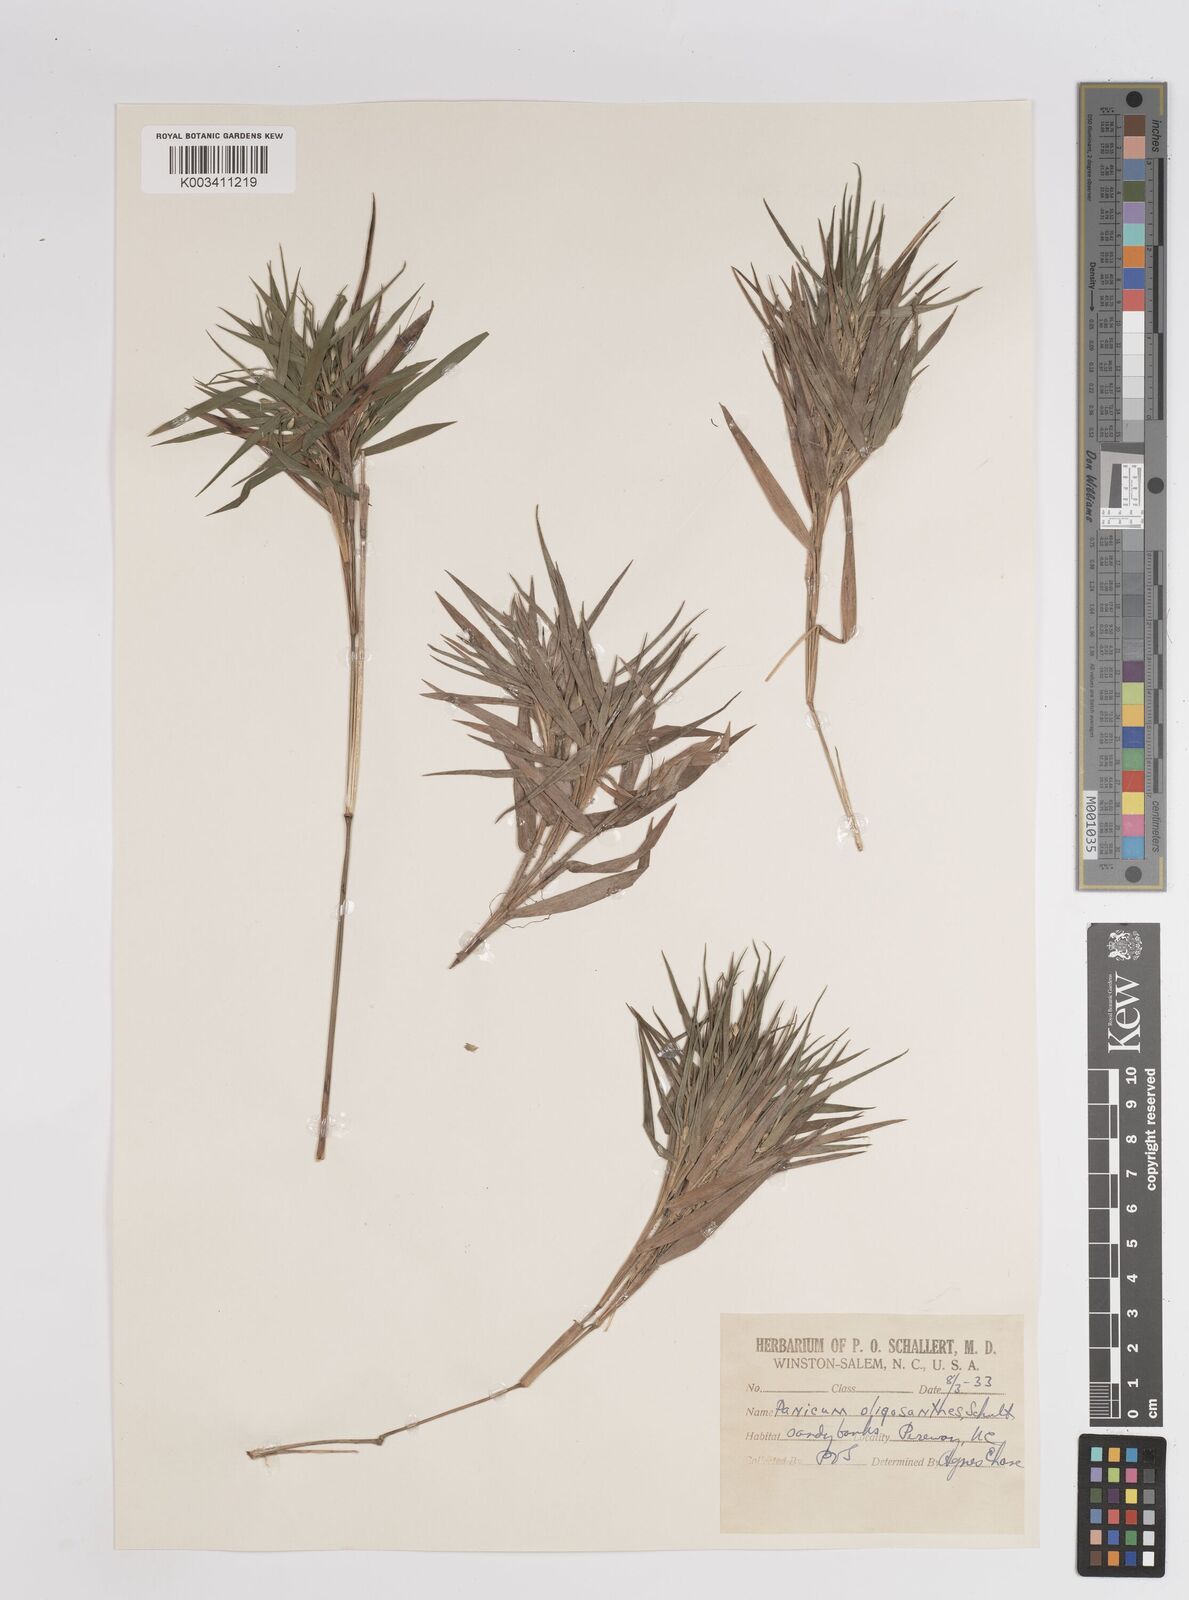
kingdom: Plantae
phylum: Tracheophyta
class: Liliopsida
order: Poales
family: Poaceae
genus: Dichanthelium
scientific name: Dichanthelium oligosanthes
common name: Few-anther obscuregrass
